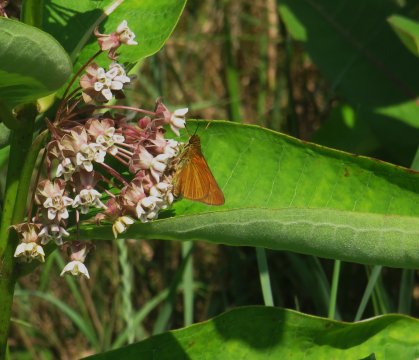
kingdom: Animalia
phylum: Arthropoda
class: Insecta
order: Lepidoptera
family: Hesperiidae
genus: Euphyes
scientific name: Euphyes dion
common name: Dion Skipper
